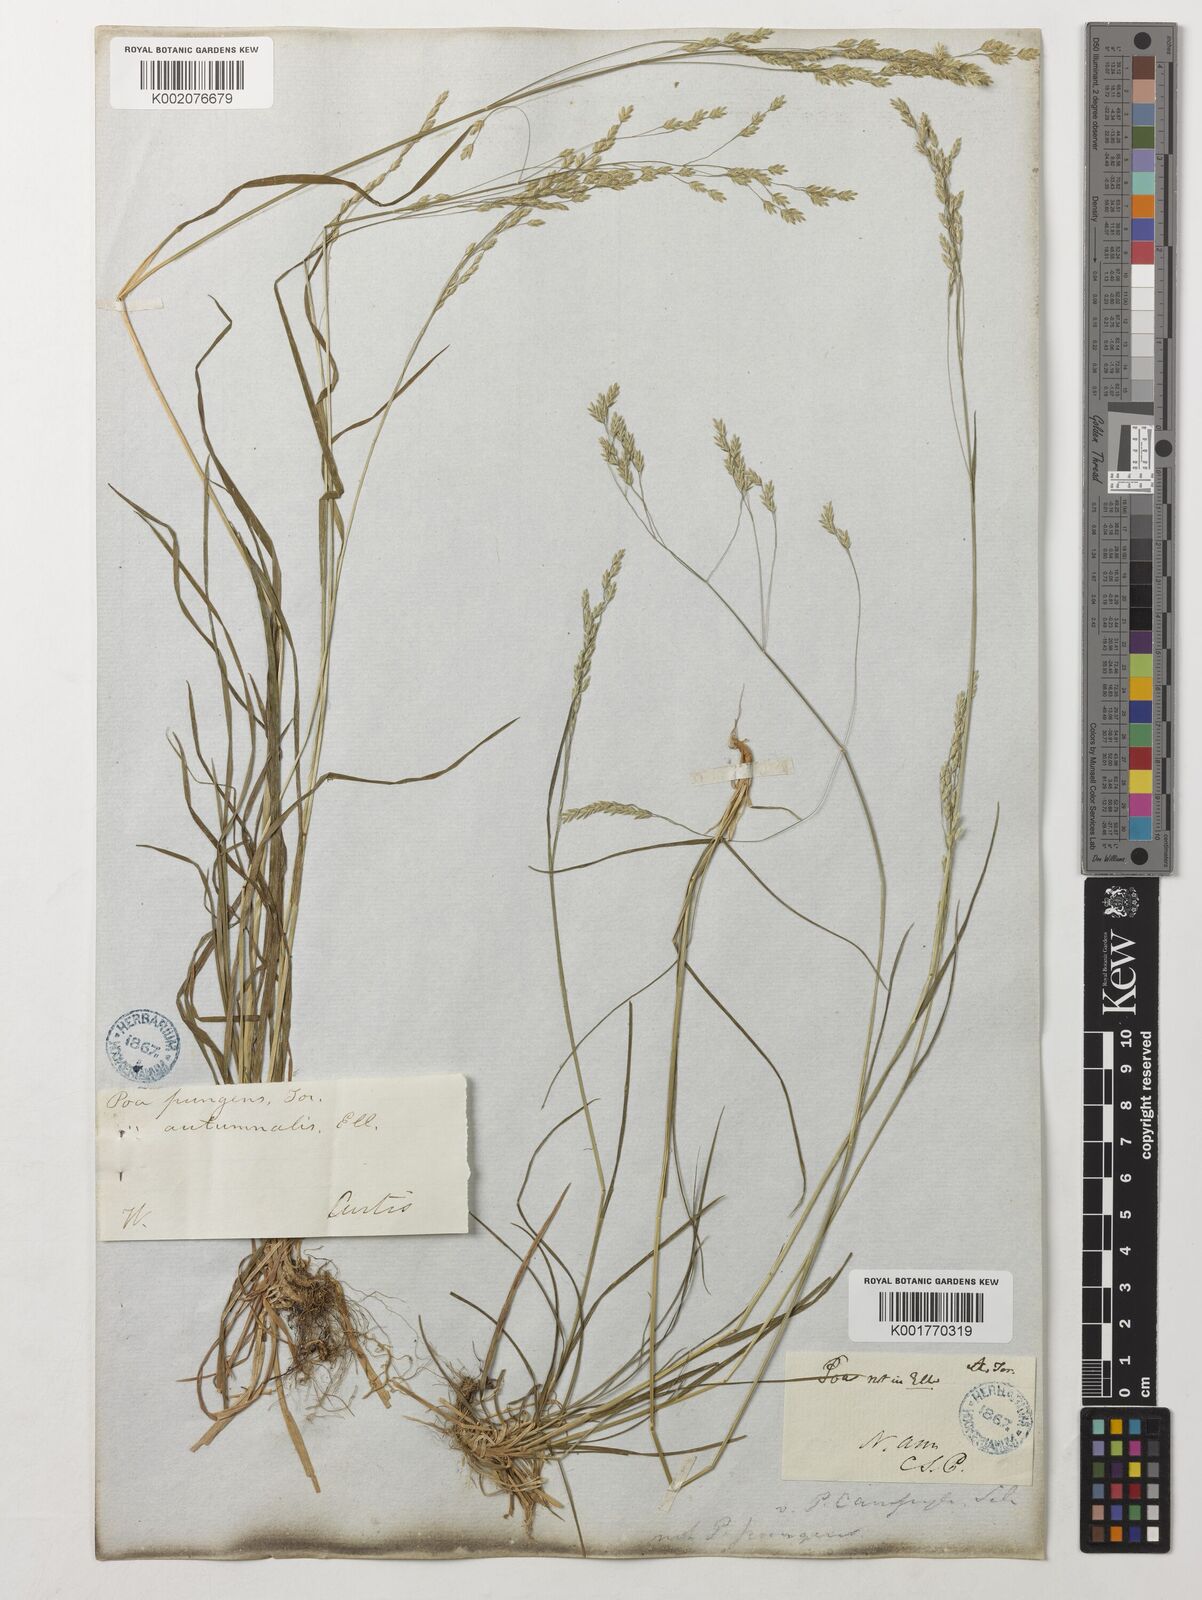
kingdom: Plantae
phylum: Tracheophyta
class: Liliopsida
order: Poales
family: Poaceae
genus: Poa
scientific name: Poa cuspidata
